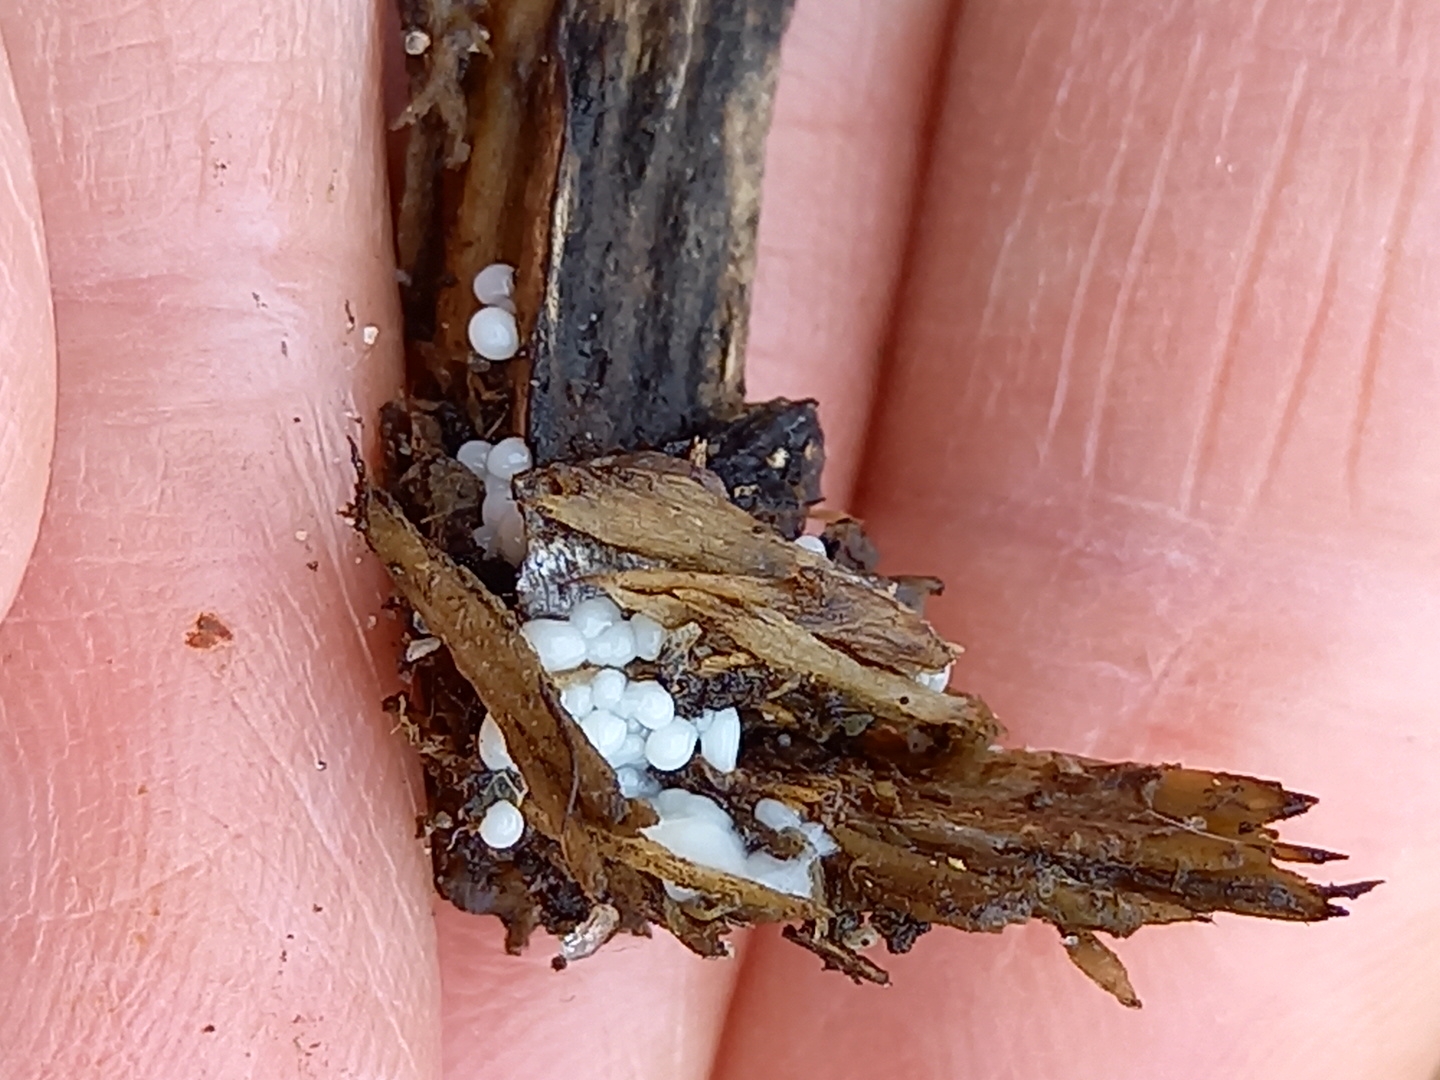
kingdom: Protozoa
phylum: Mycetozoa
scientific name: Mycetozoa
